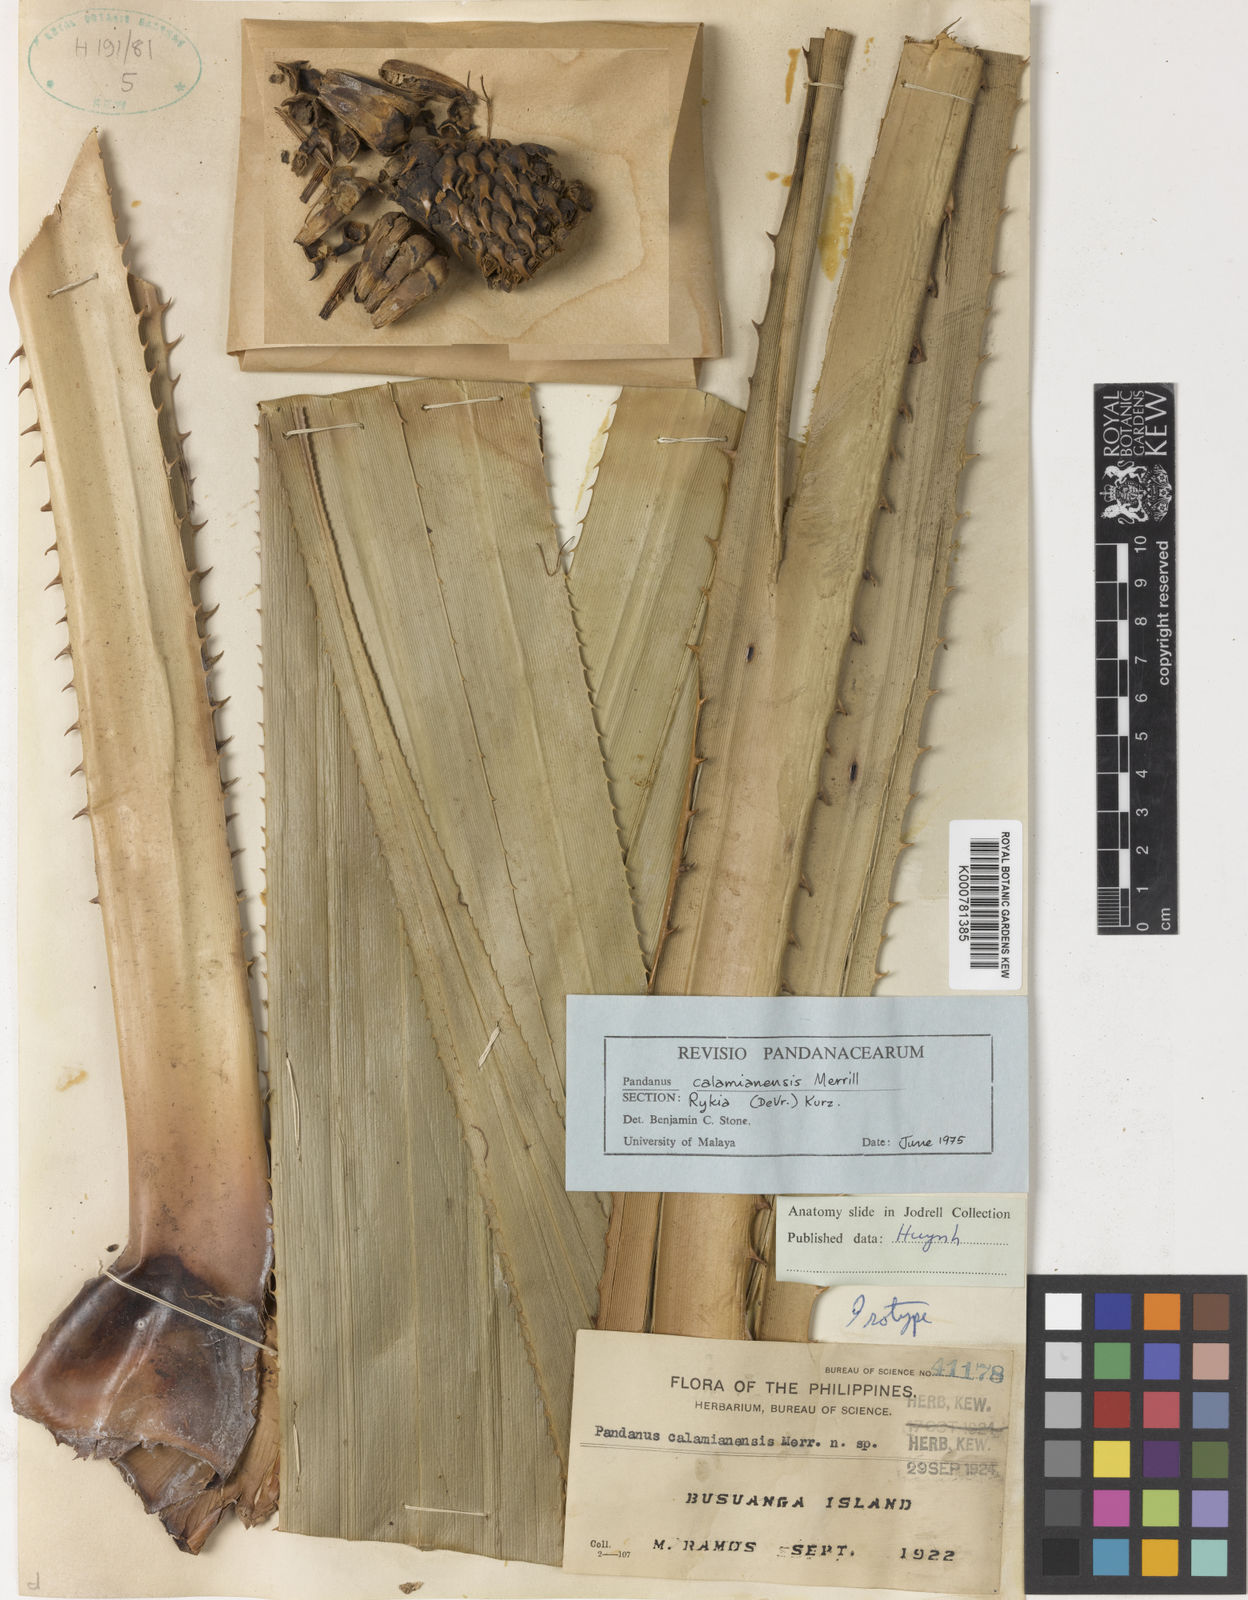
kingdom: Plantae
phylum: Tracheophyta
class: Liliopsida
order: Pandanales
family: Pandanaceae
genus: Pandanus
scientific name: Pandanus
